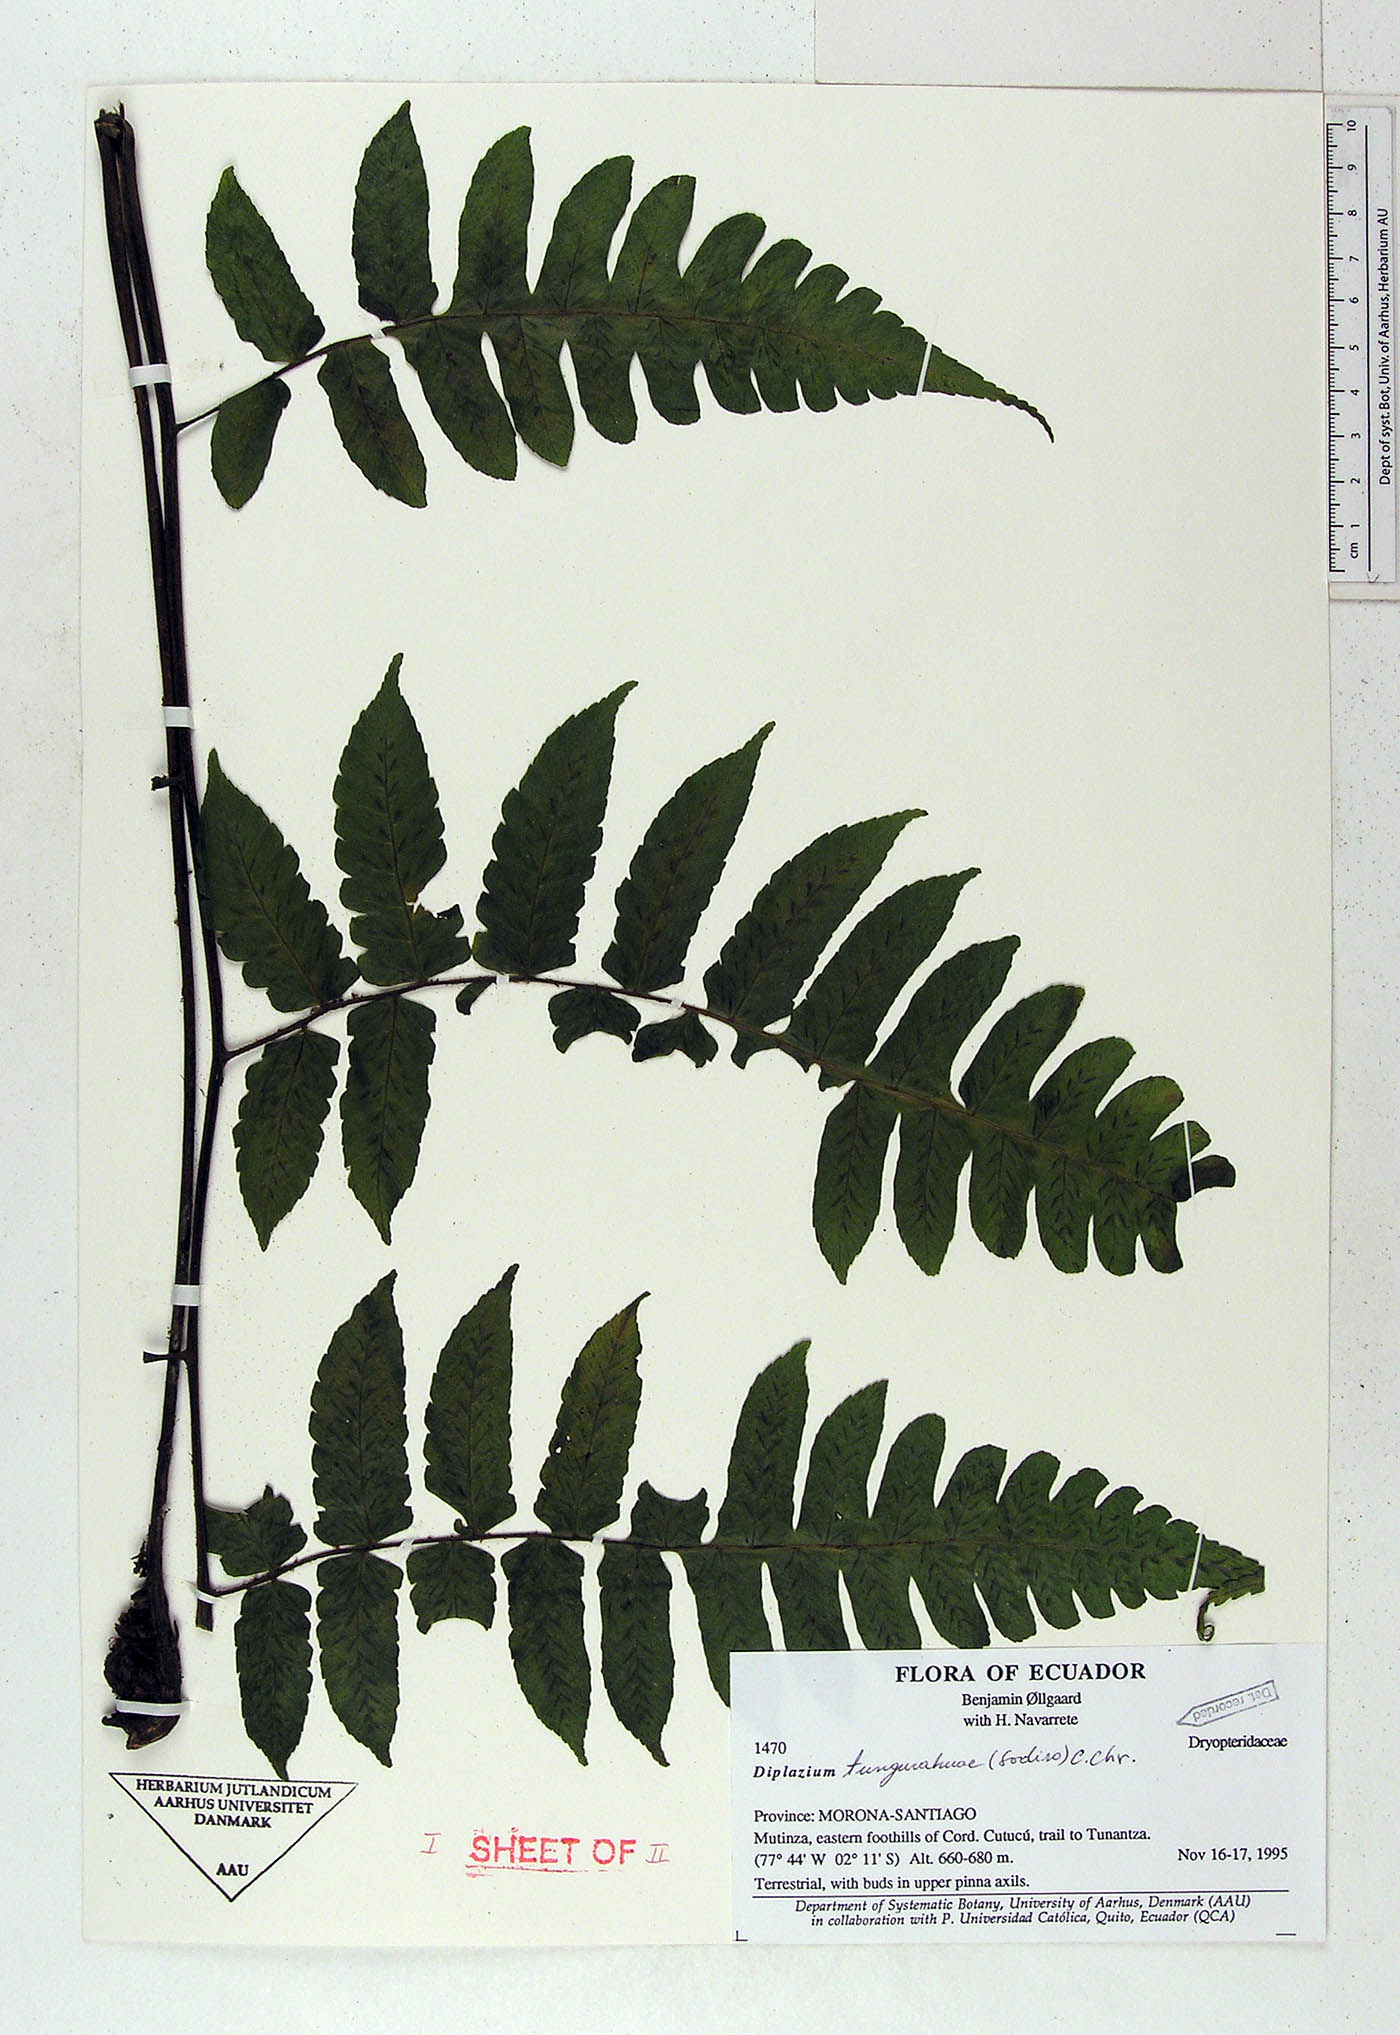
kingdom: Plantae
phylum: Tracheophyta
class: Polypodiopsida
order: Polypodiales
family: Athyriaceae
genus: Diplazium
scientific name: Diplazium tungurahuae
